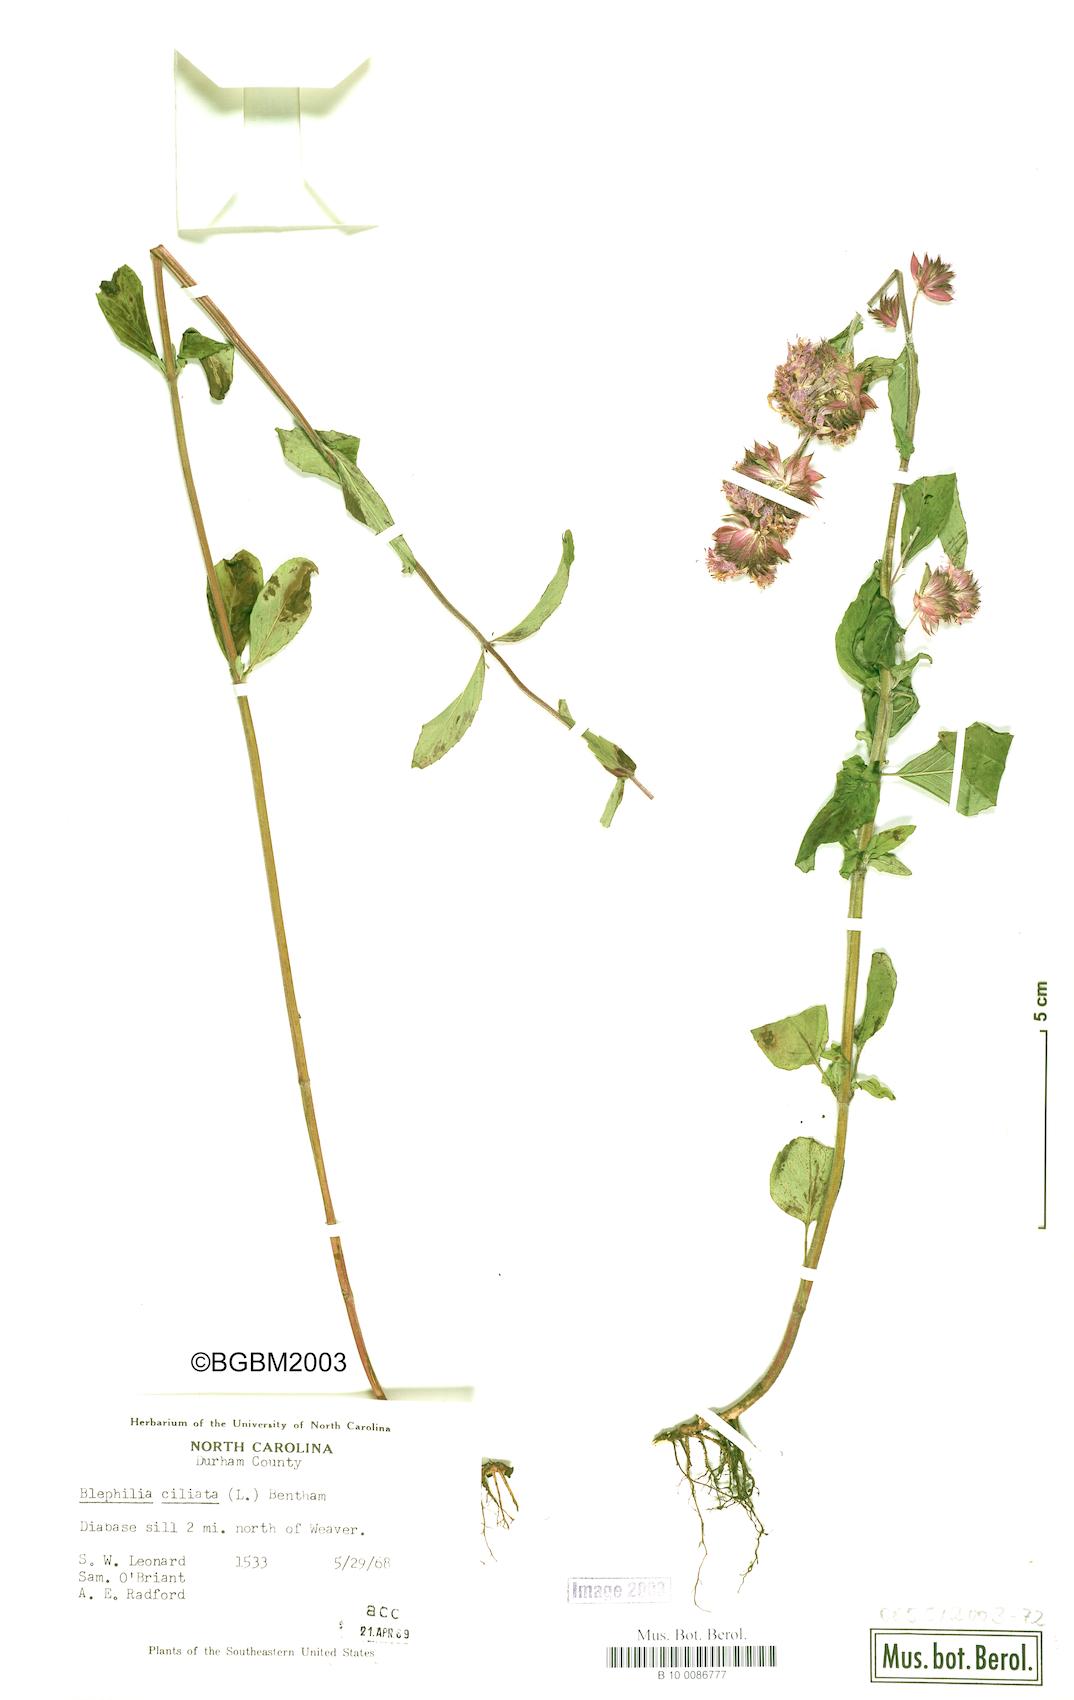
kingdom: Plantae
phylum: Tracheophyta
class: Magnoliopsida
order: Lamiales
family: Lamiaceae
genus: Blephilia
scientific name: Blephilia ciliata
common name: Downy blephilia
